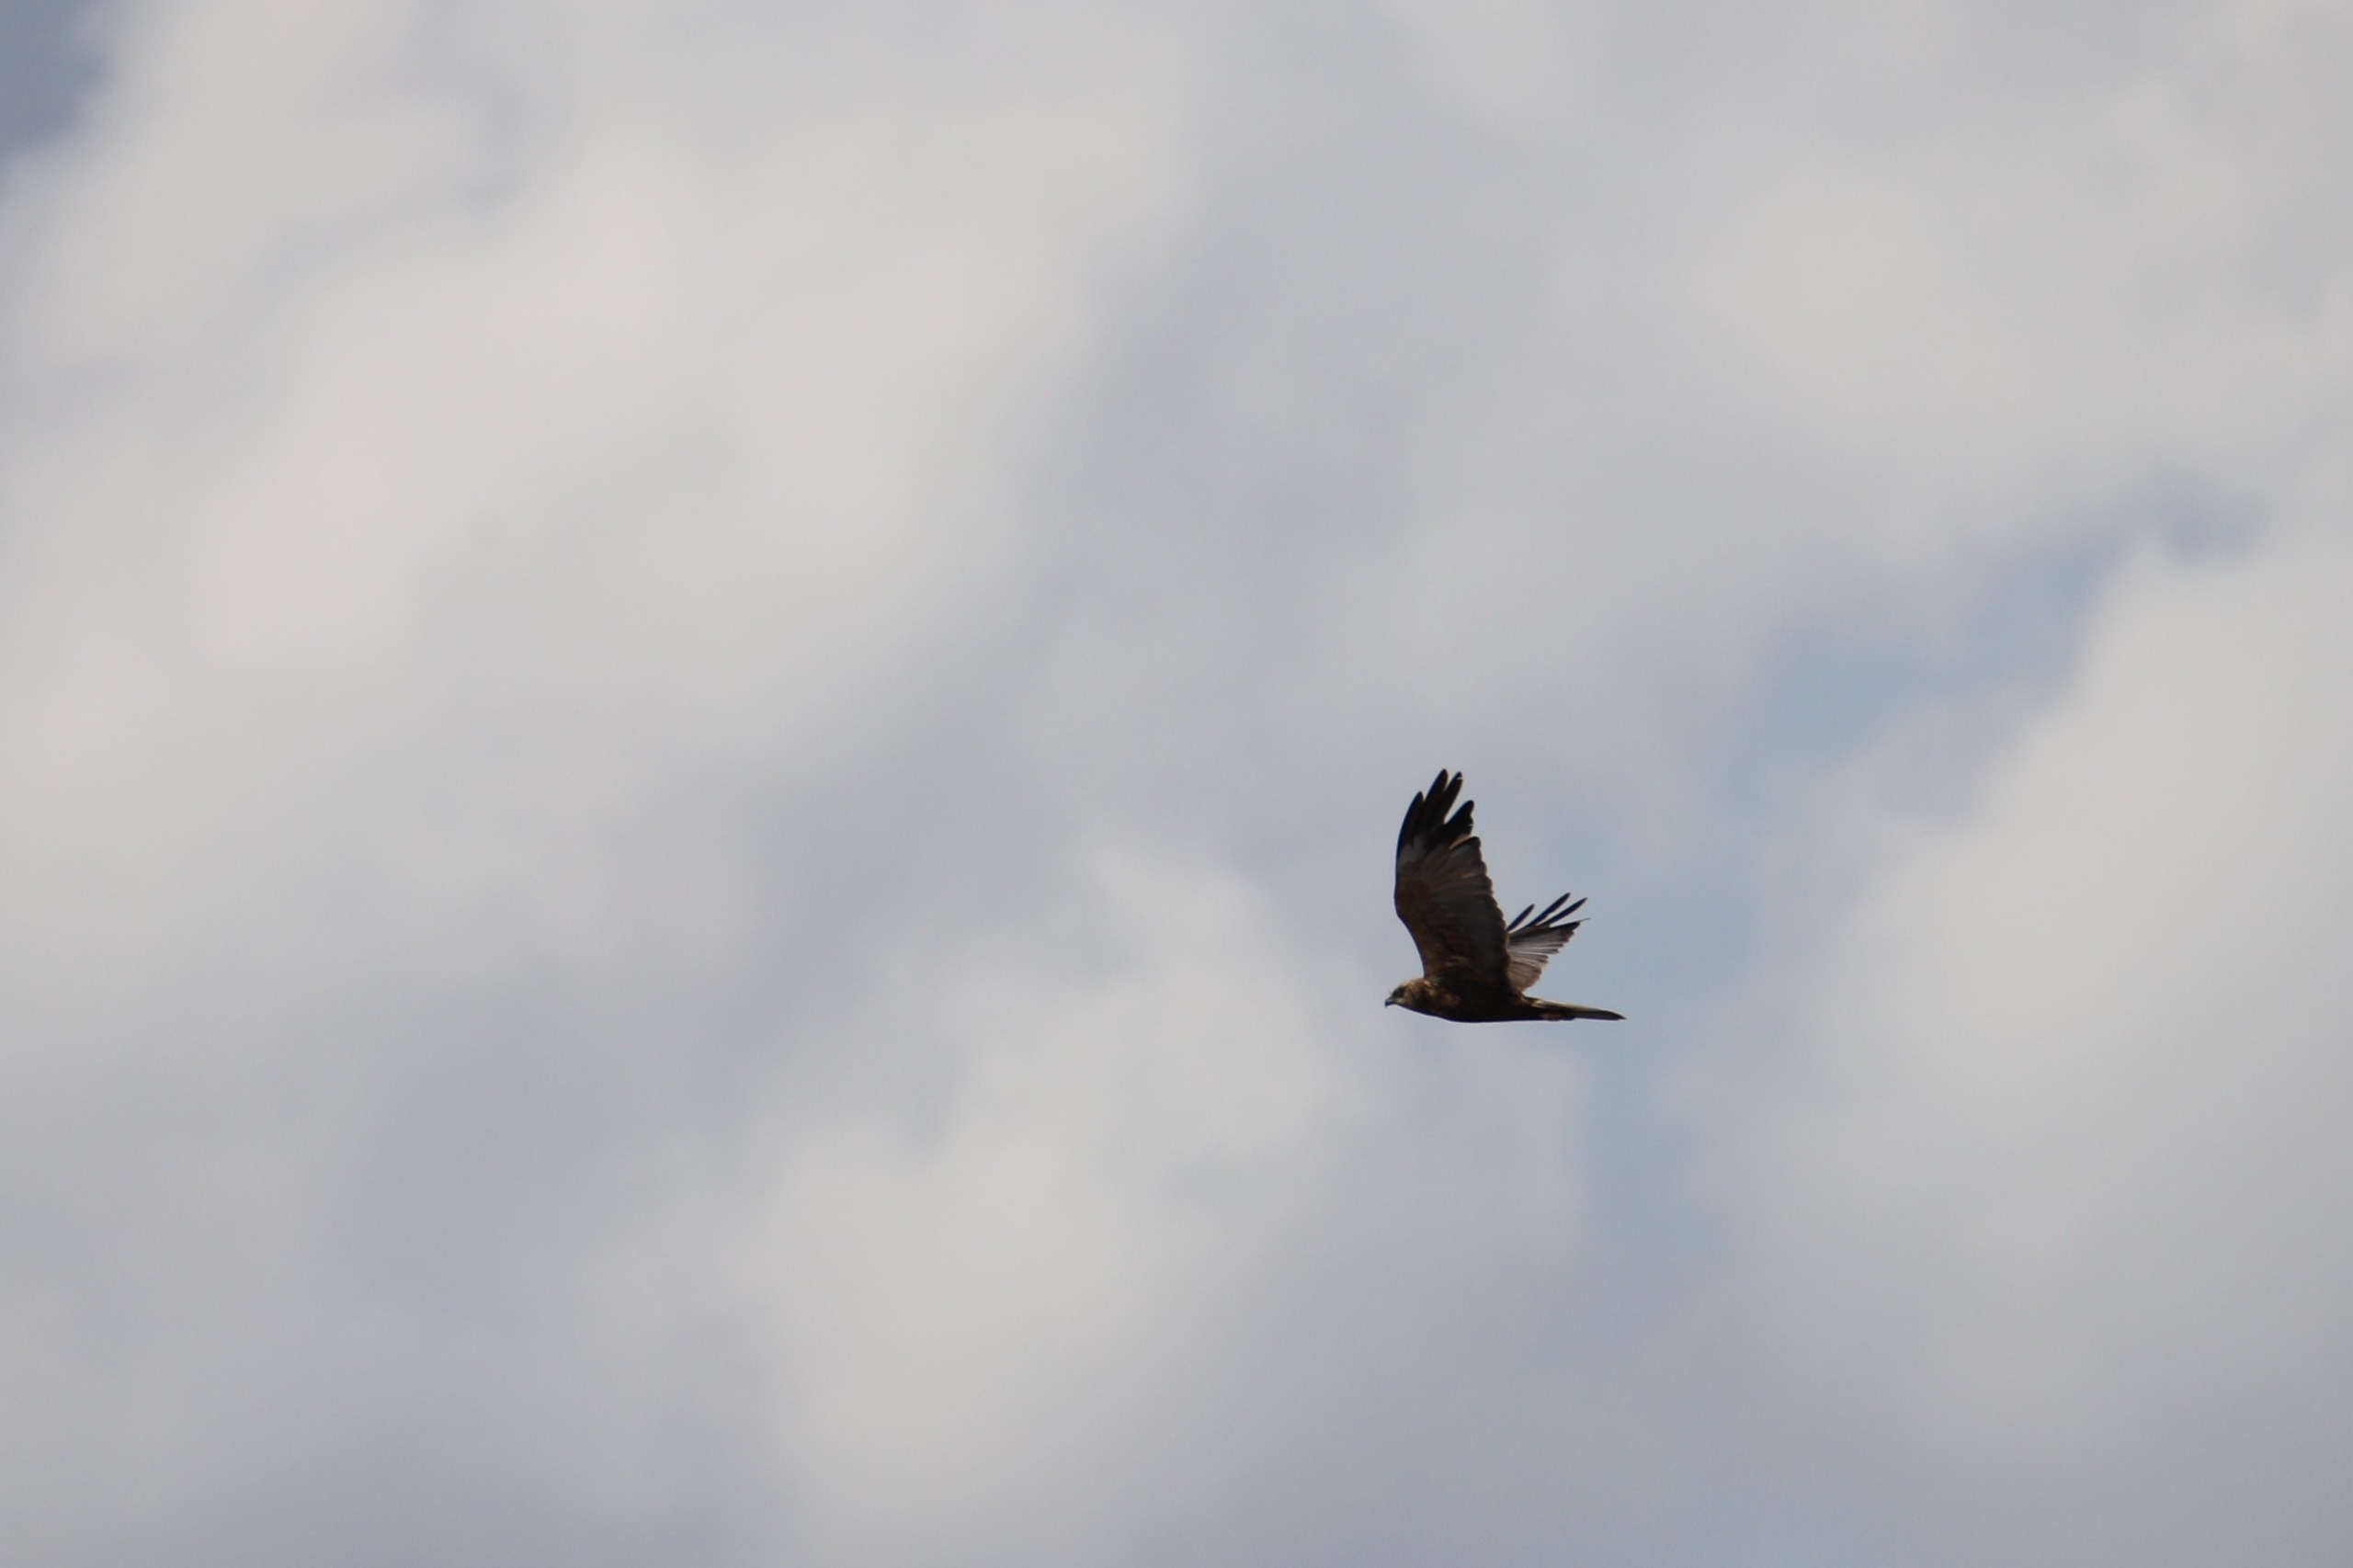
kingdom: Animalia
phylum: Chordata
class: Aves
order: Accipitriformes
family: Accipitridae
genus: Circus
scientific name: Circus aeruginosus
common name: Rørhøg
